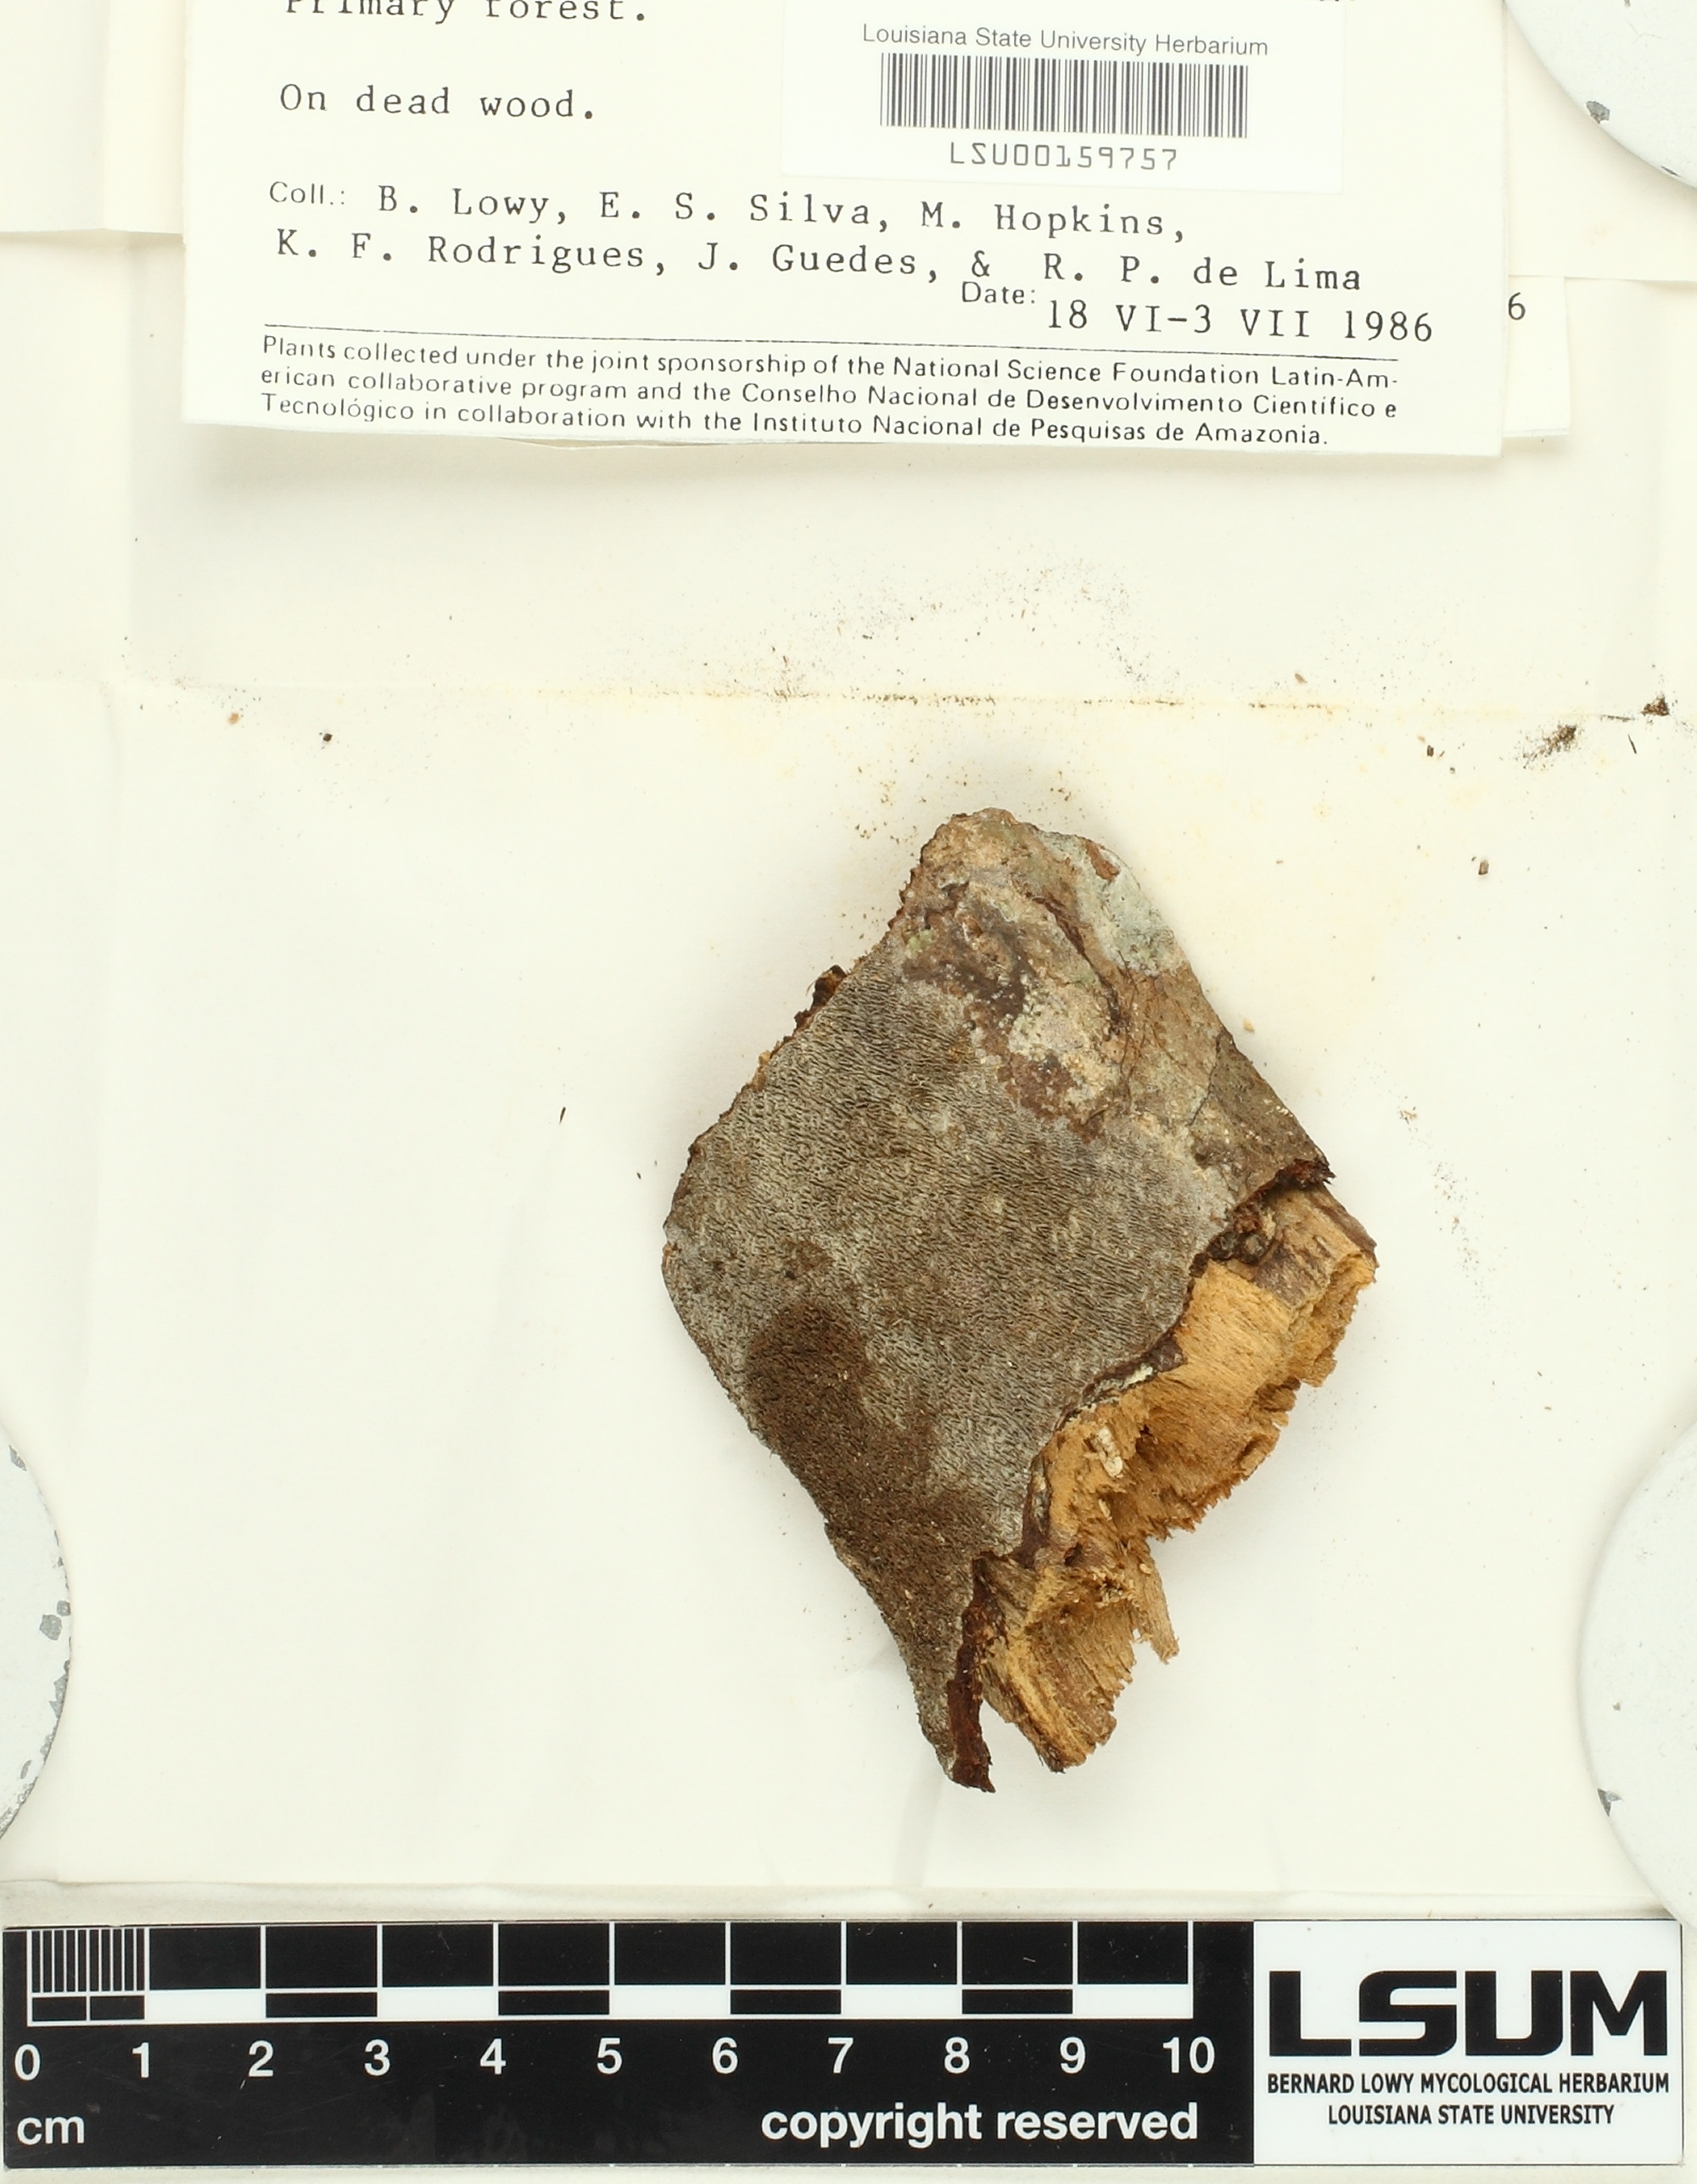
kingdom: Fungi
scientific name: Fungi
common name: Fungi
